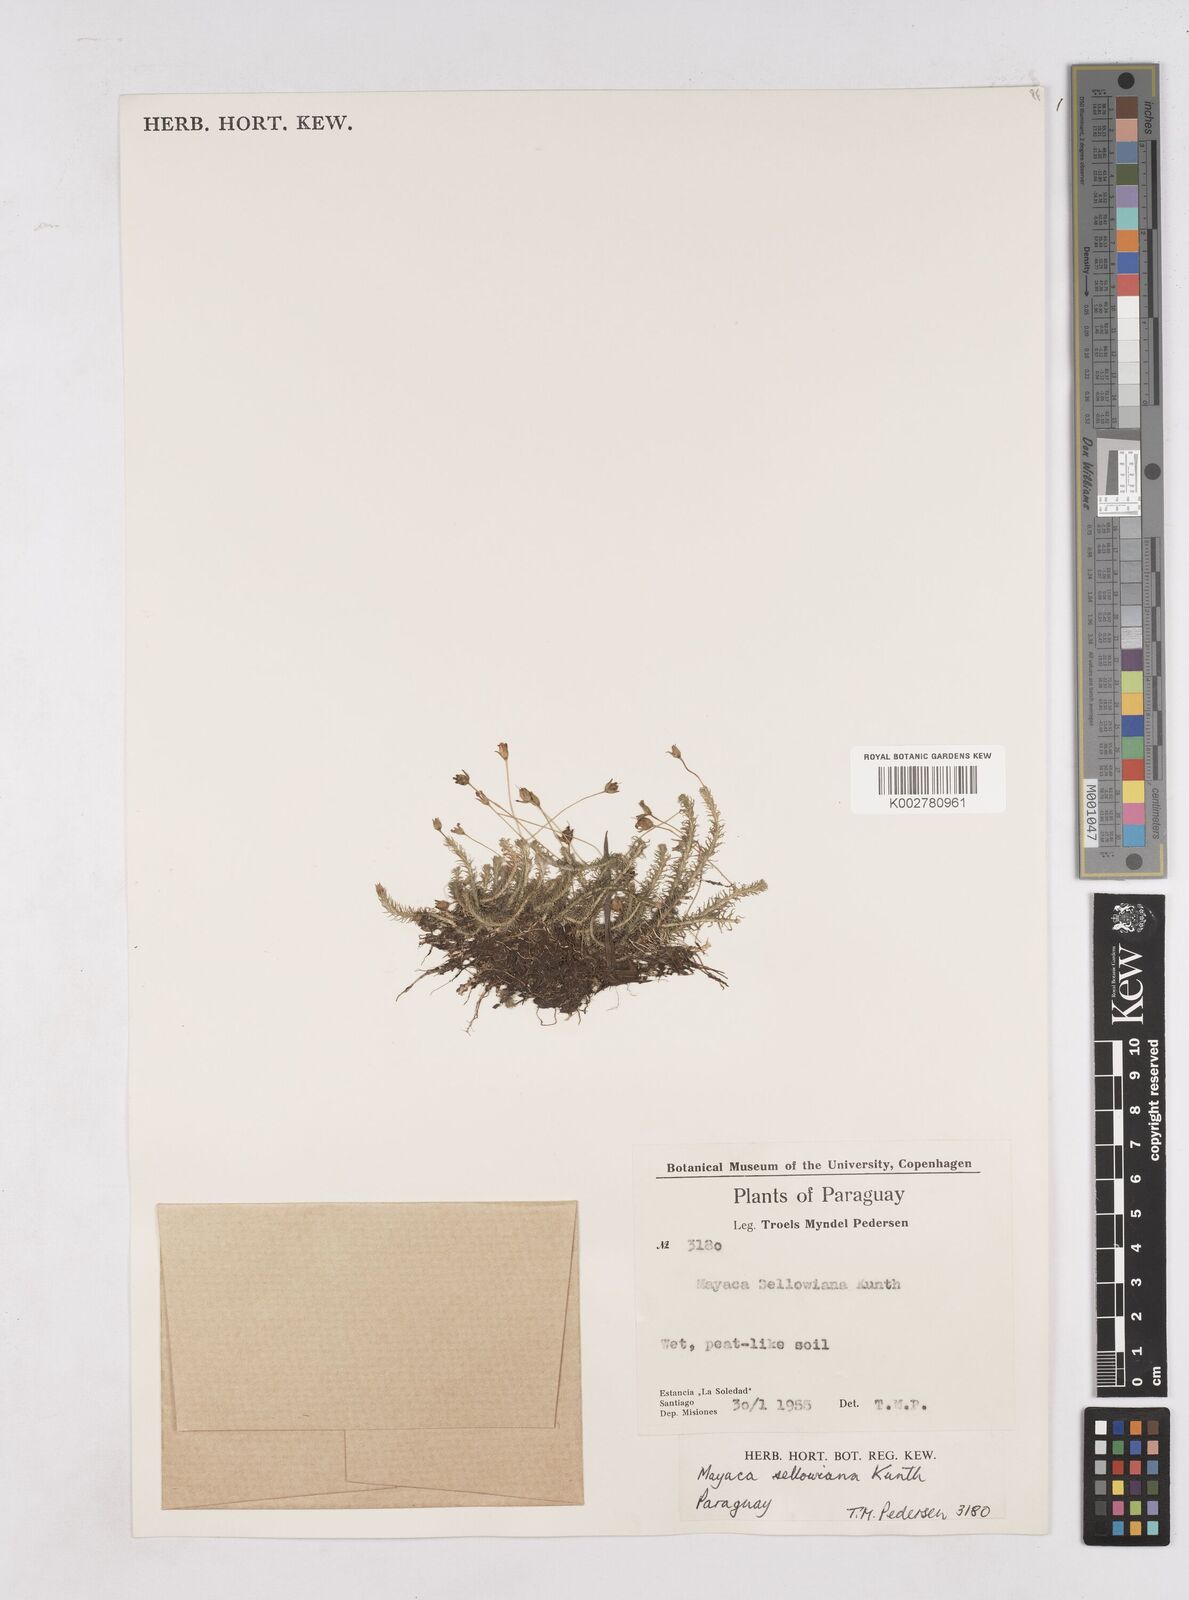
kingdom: Plantae
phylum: Tracheophyta
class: Liliopsida
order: Poales
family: Mayacaceae
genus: Mayaca
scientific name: Mayaca sellowiana
